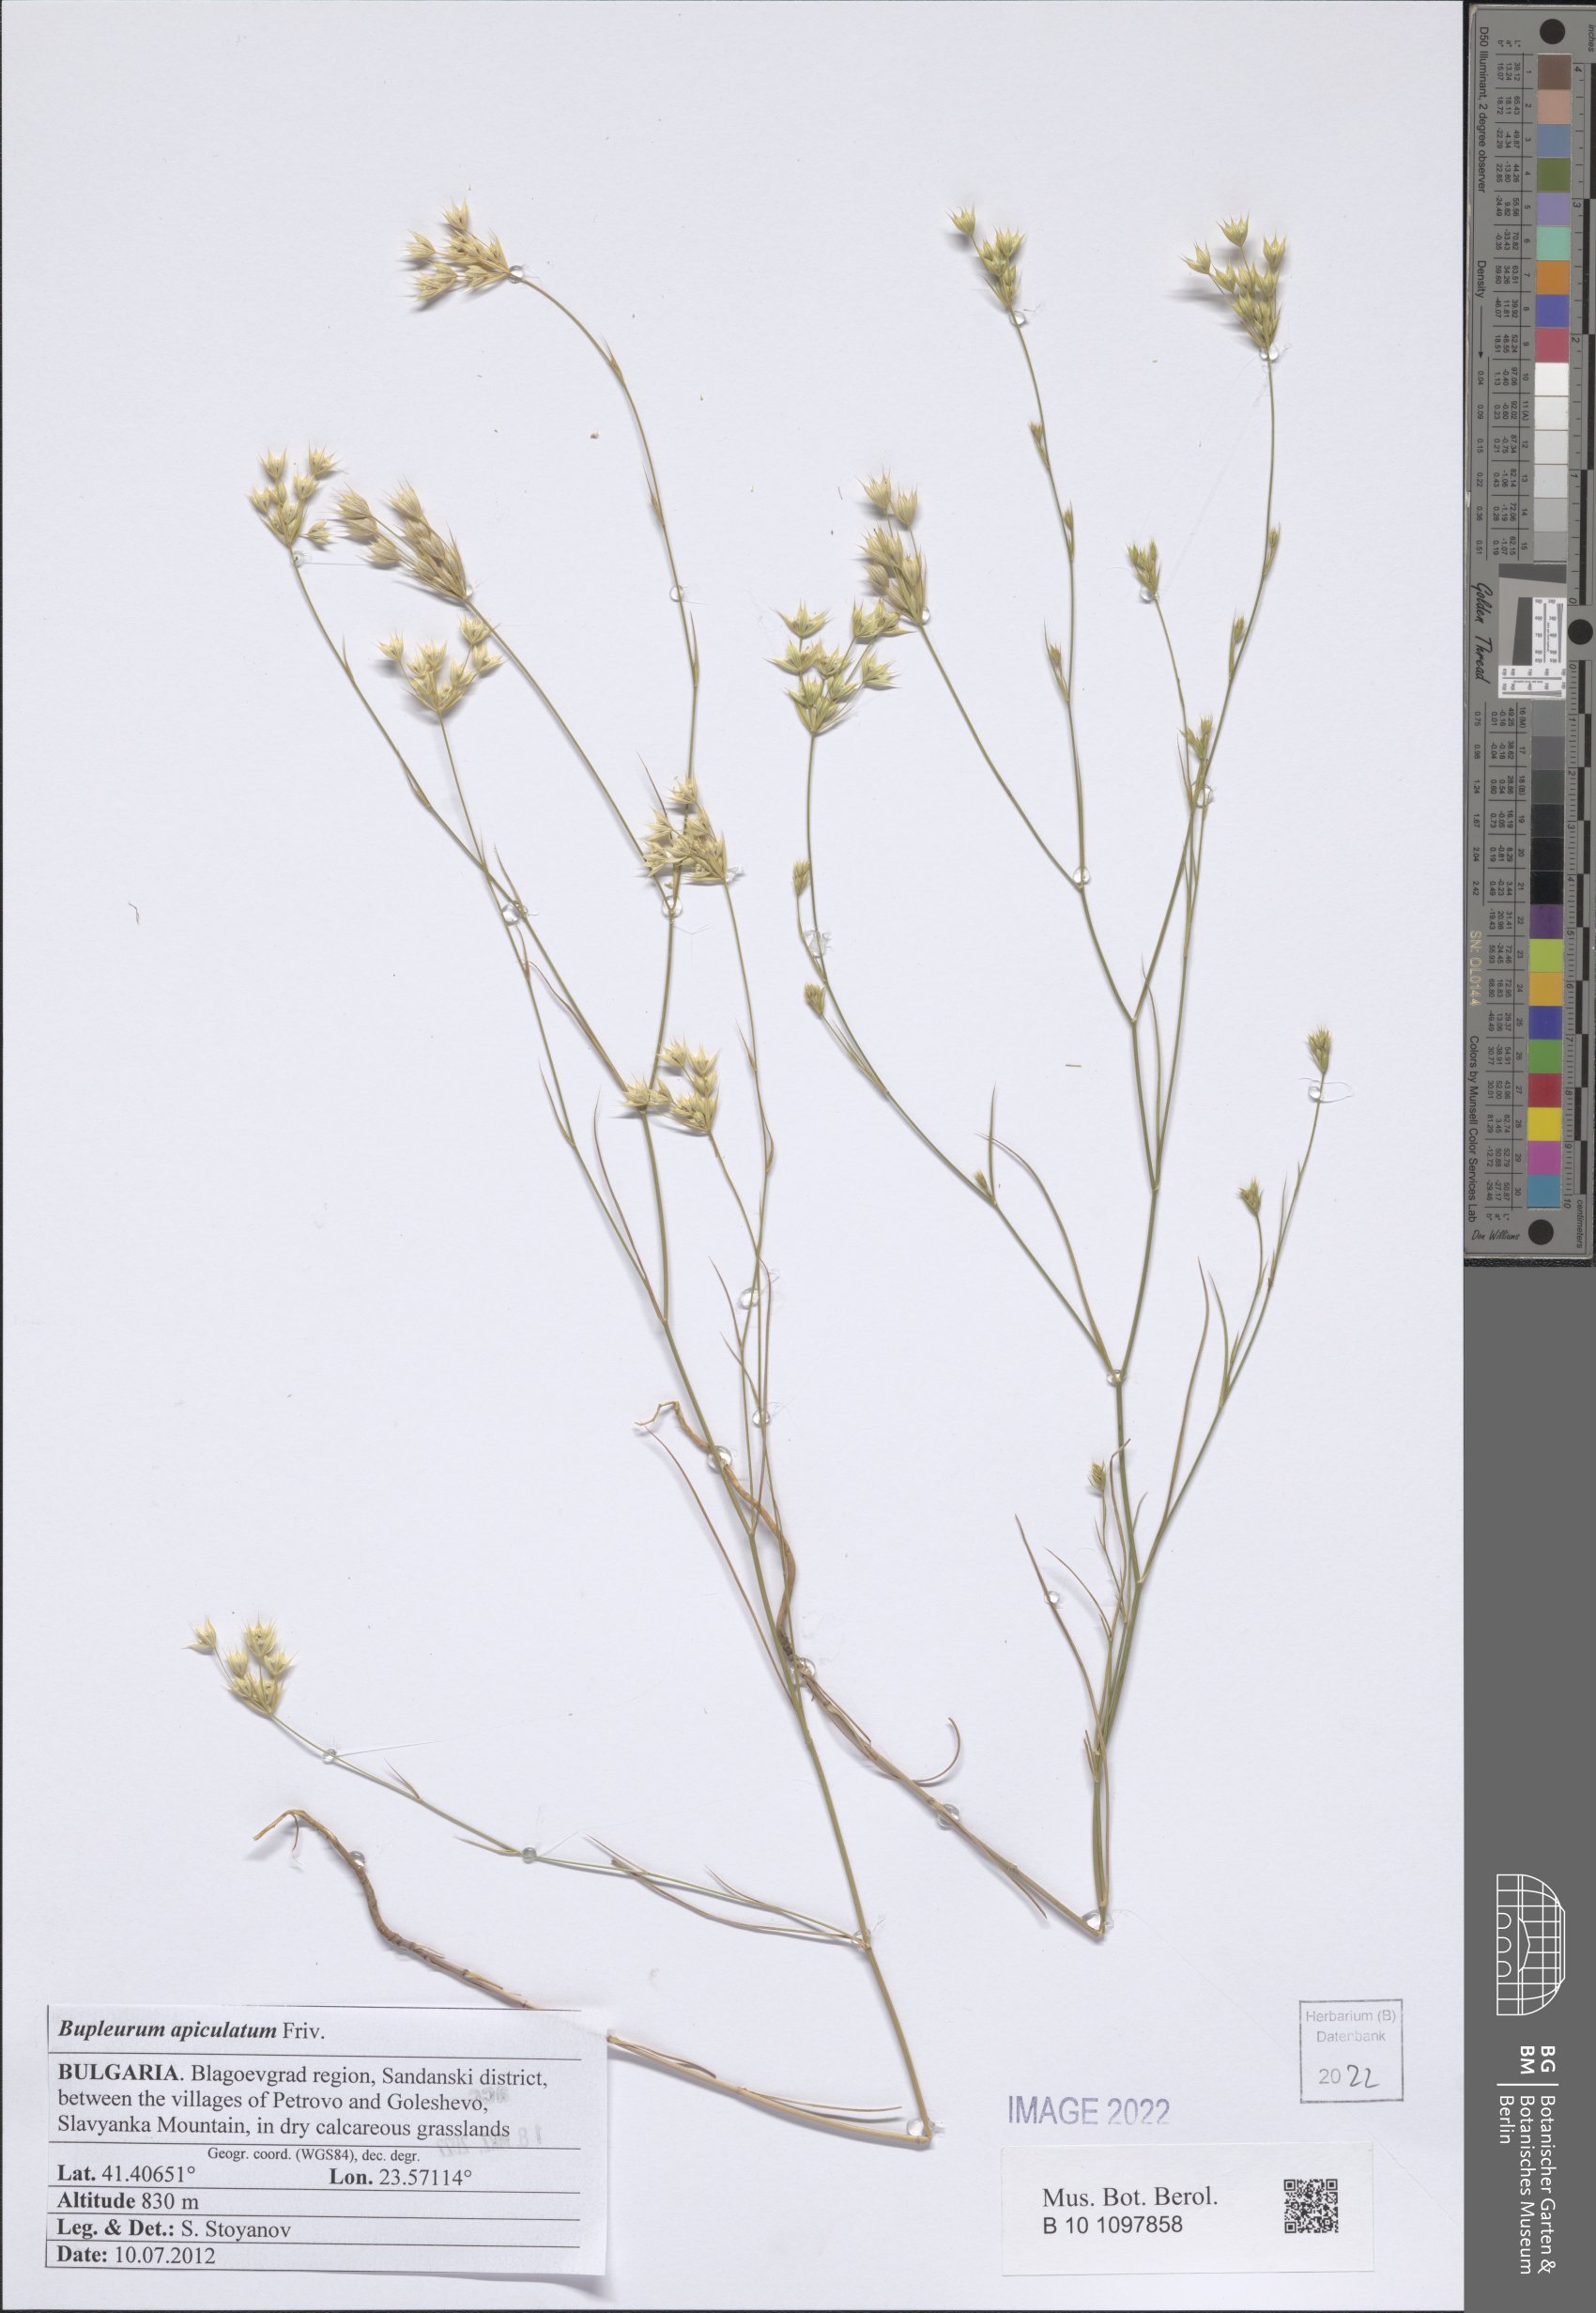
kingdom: Plantae
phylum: Tracheophyta
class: Magnoliopsida
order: Apiales
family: Apiaceae
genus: Bupleurum
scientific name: Bupleurum apiculatum
